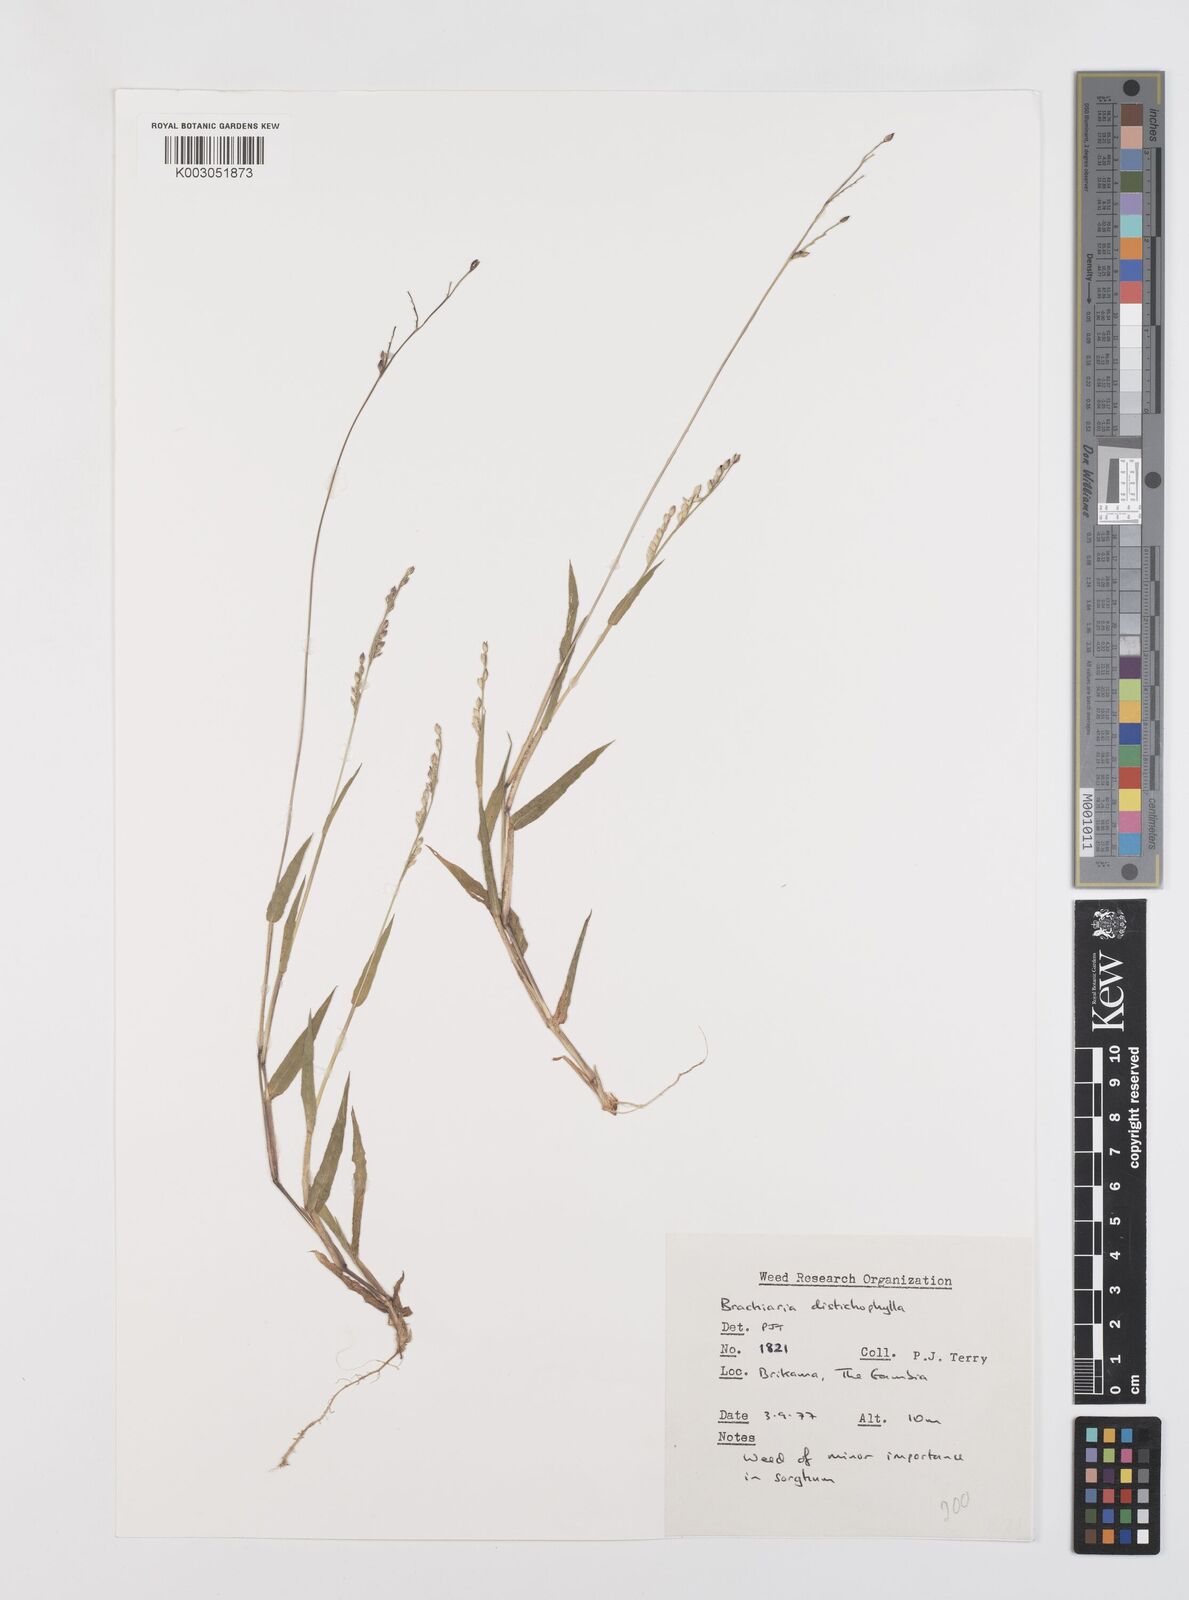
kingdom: Plantae
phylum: Tracheophyta
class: Liliopsida
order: Poales
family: Poaceae
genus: Urochloa
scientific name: Urochloa xantholeuca
